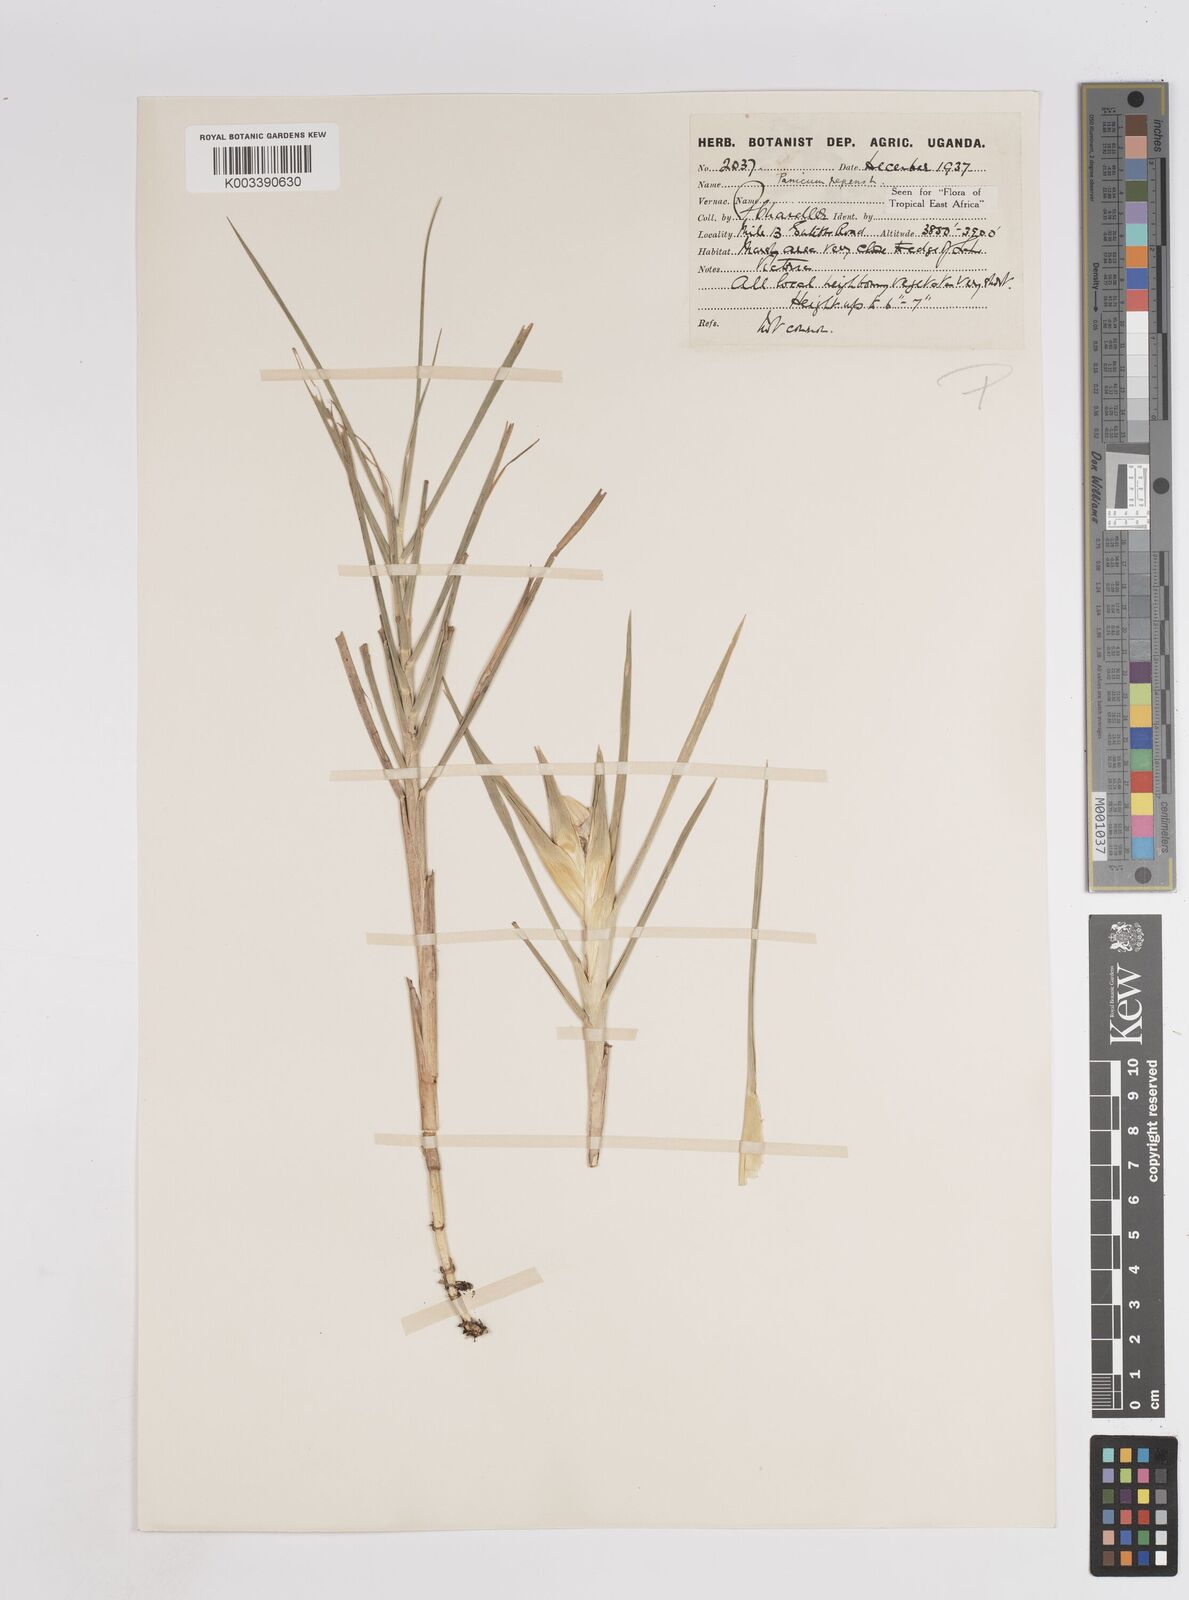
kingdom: Plantae
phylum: Tracheophyta
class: Liliopsida
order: Poales
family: Poaceae
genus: Panicum
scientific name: Panicum repens
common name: Torpedo grass
